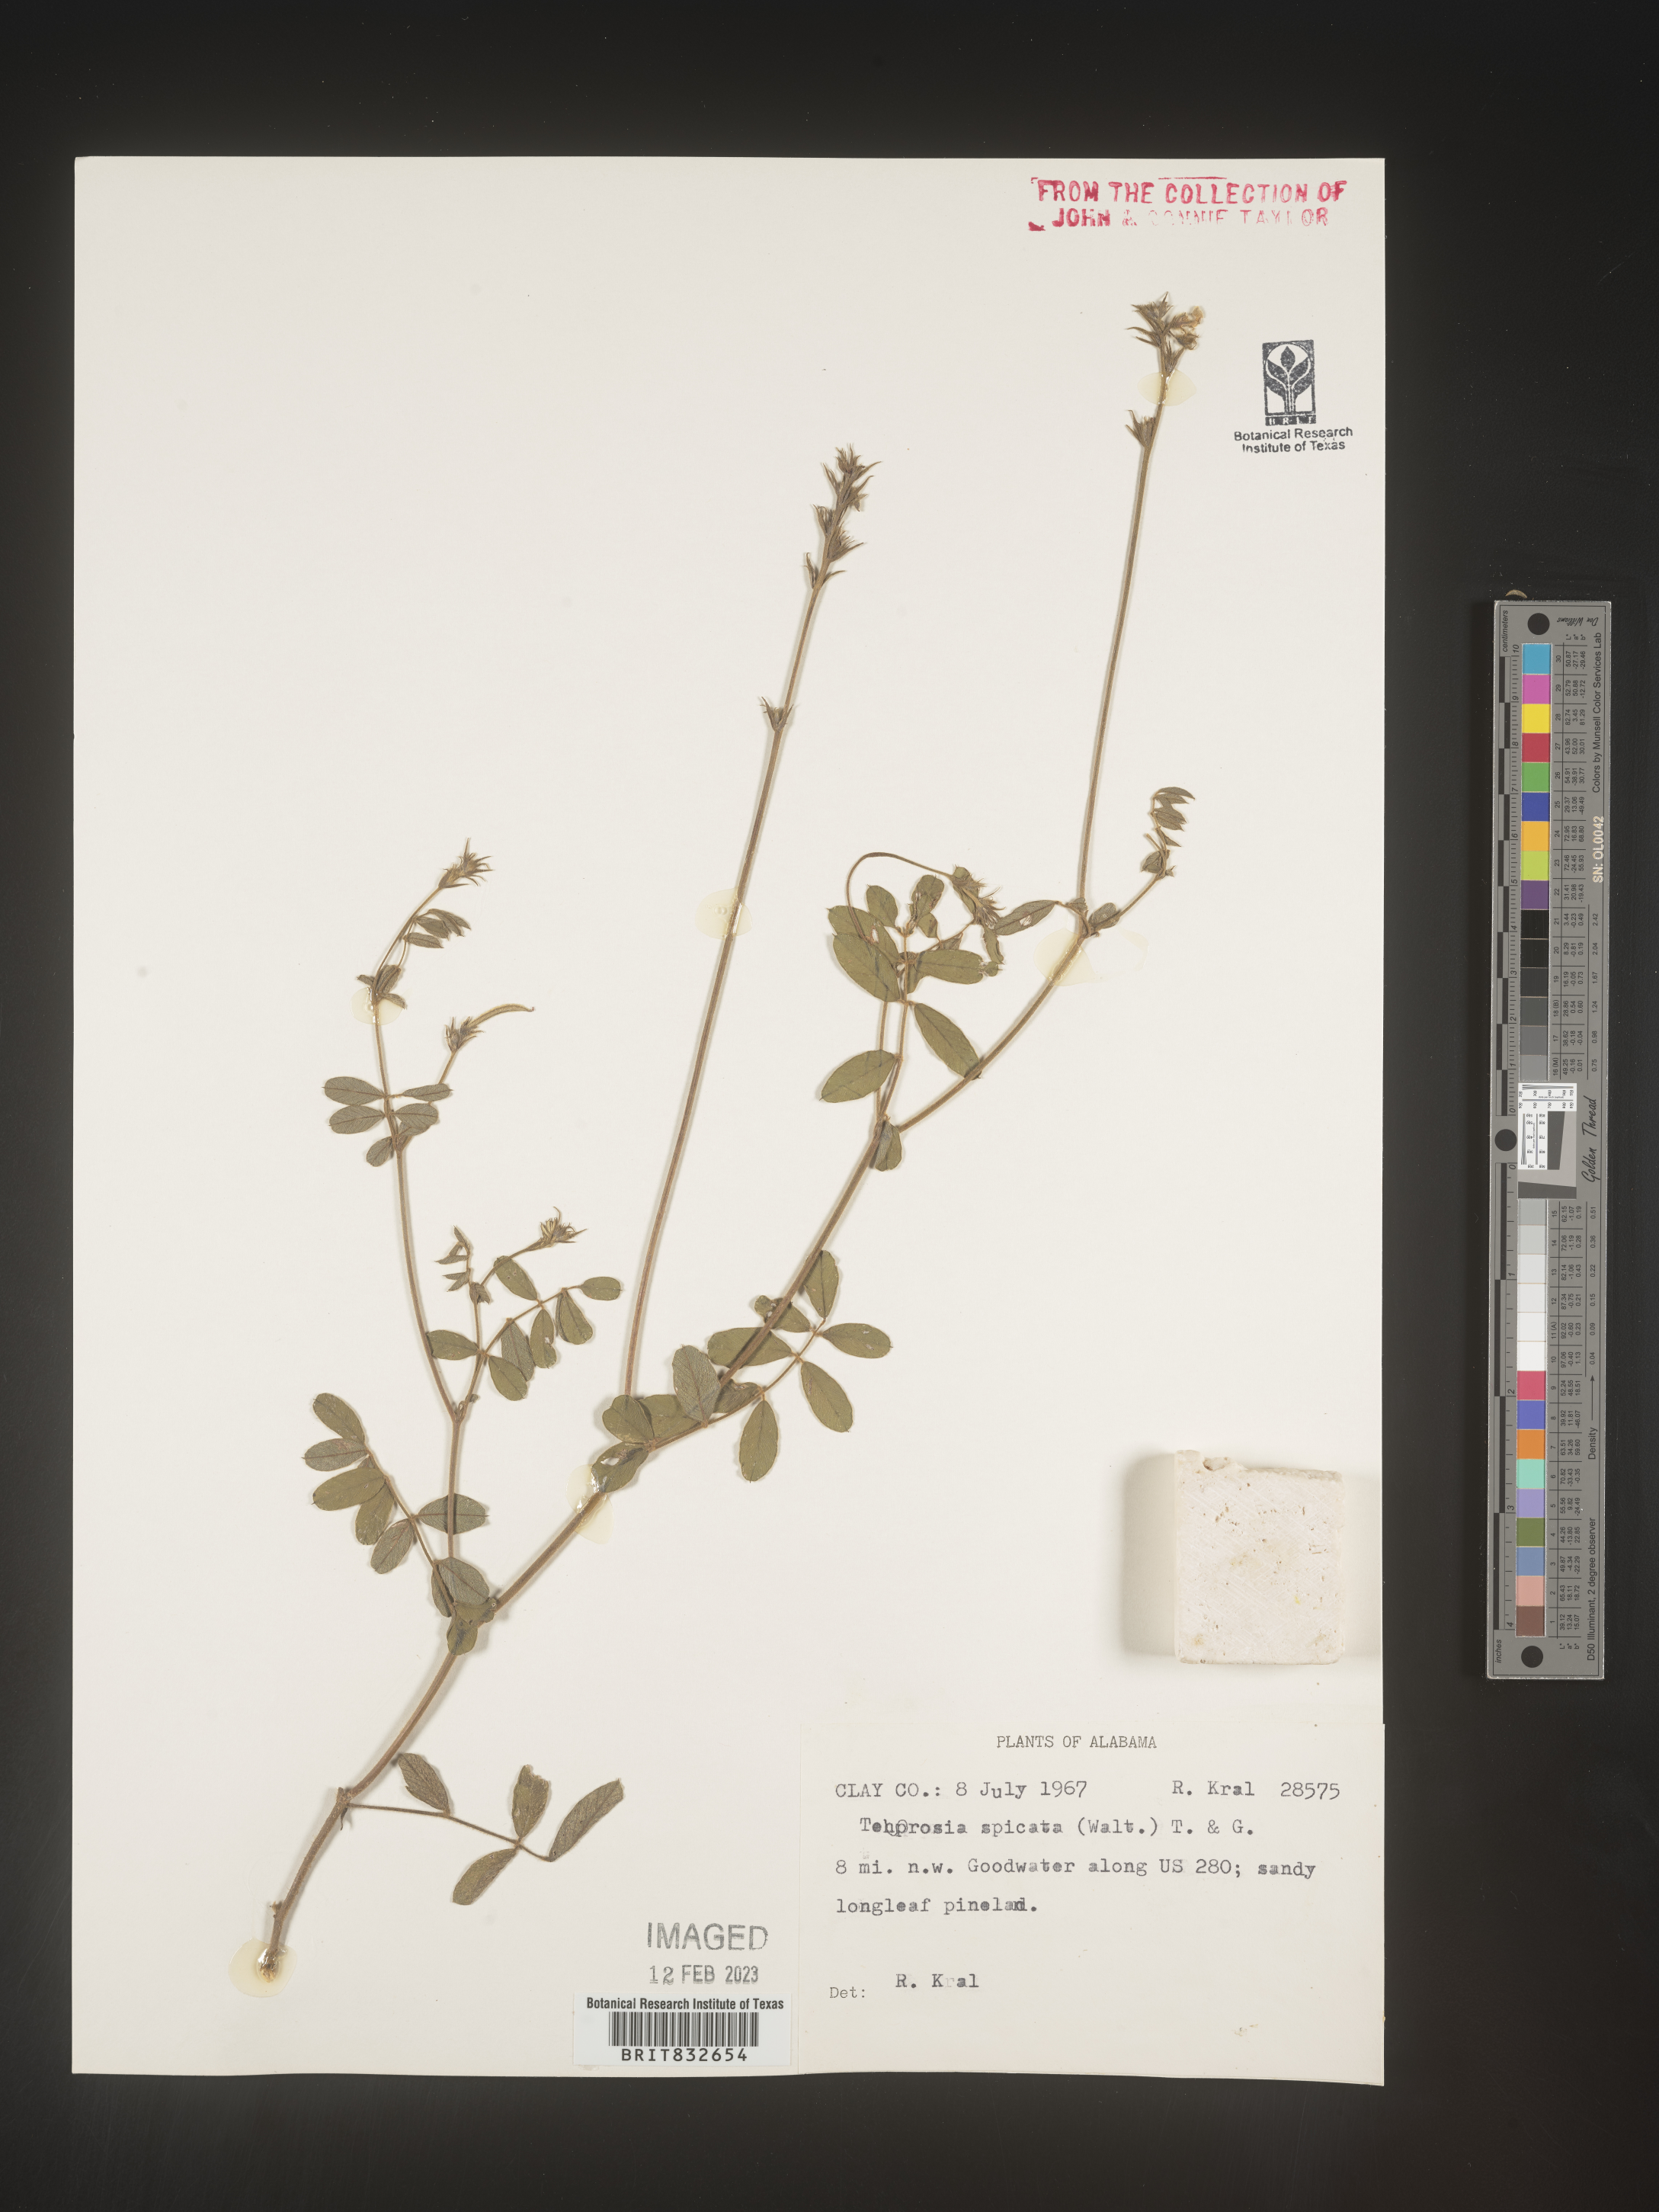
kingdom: Plantae
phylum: Tracheophyta
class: Magnoliopsida
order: Fabales
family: Fabaceae
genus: Tephrosia
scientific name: Tephrosia spicata
